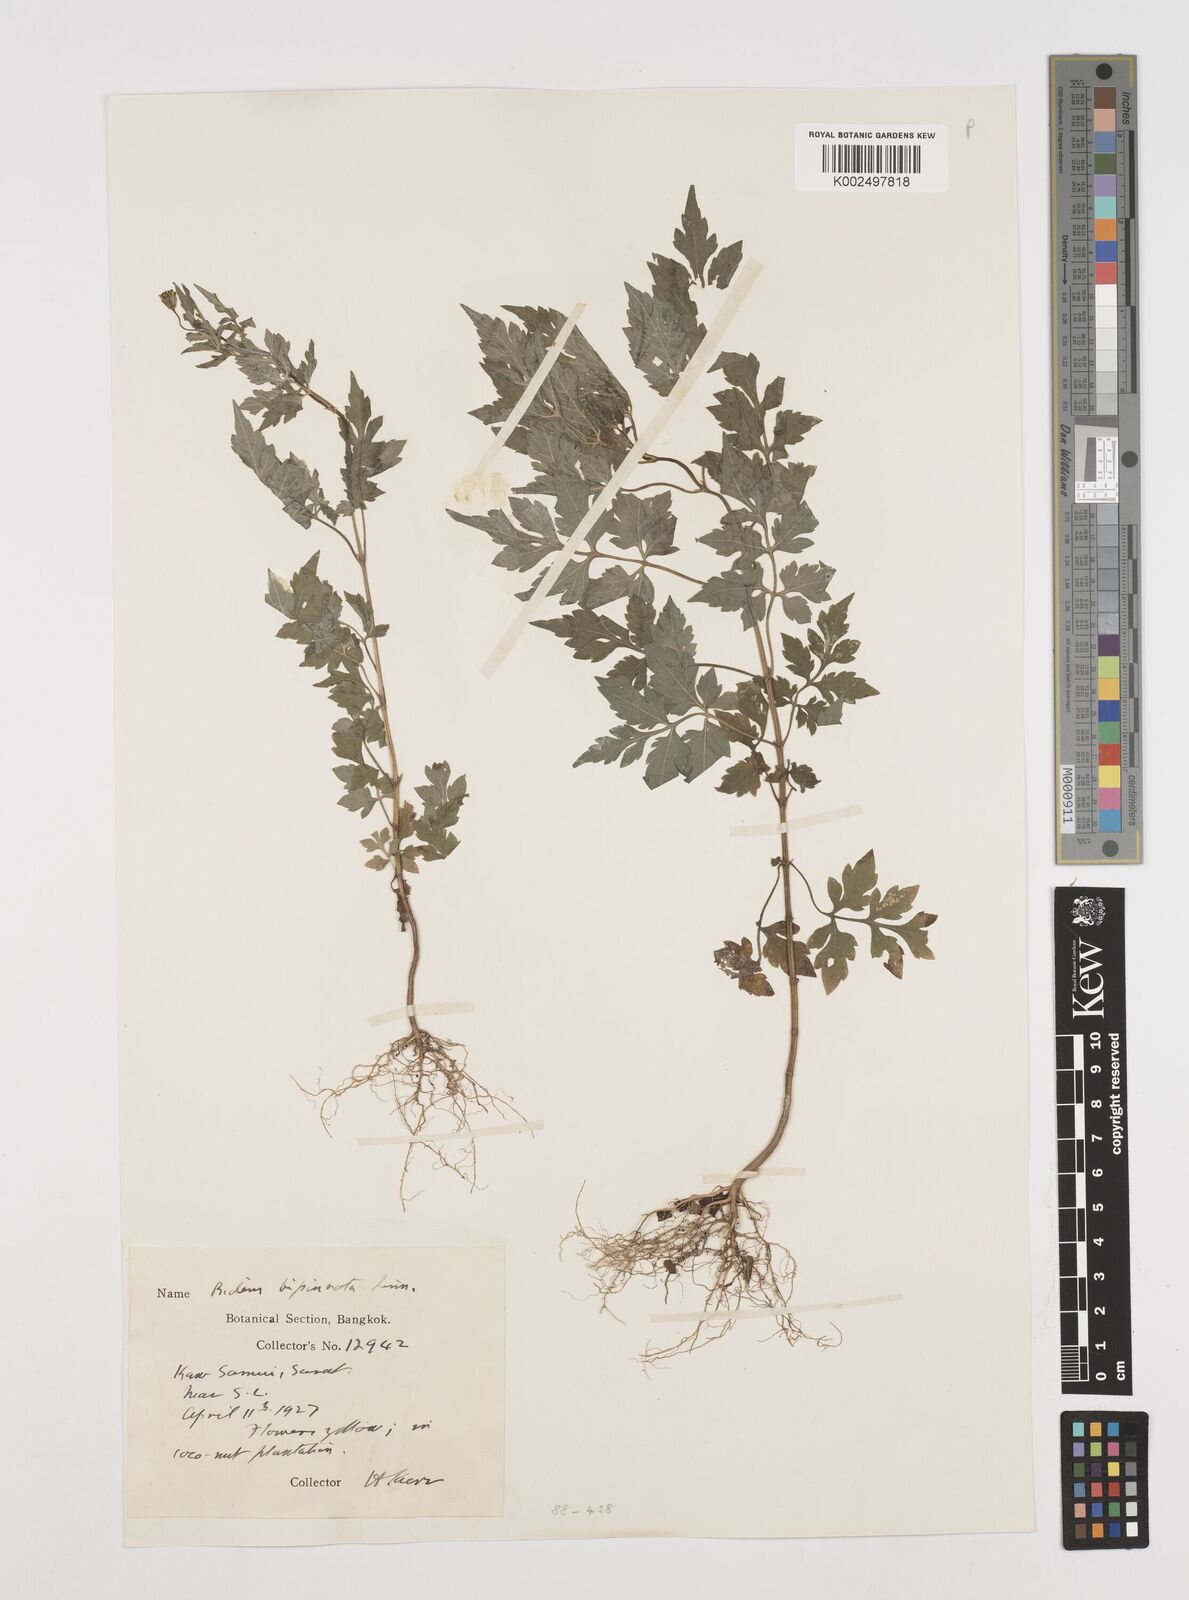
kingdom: Plantae
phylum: Tracheophyta
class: Magnoliopsida
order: Asterales
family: Asteraceae
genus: Cosmos
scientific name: Cosmos bipinnatus
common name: Garden cosmos
